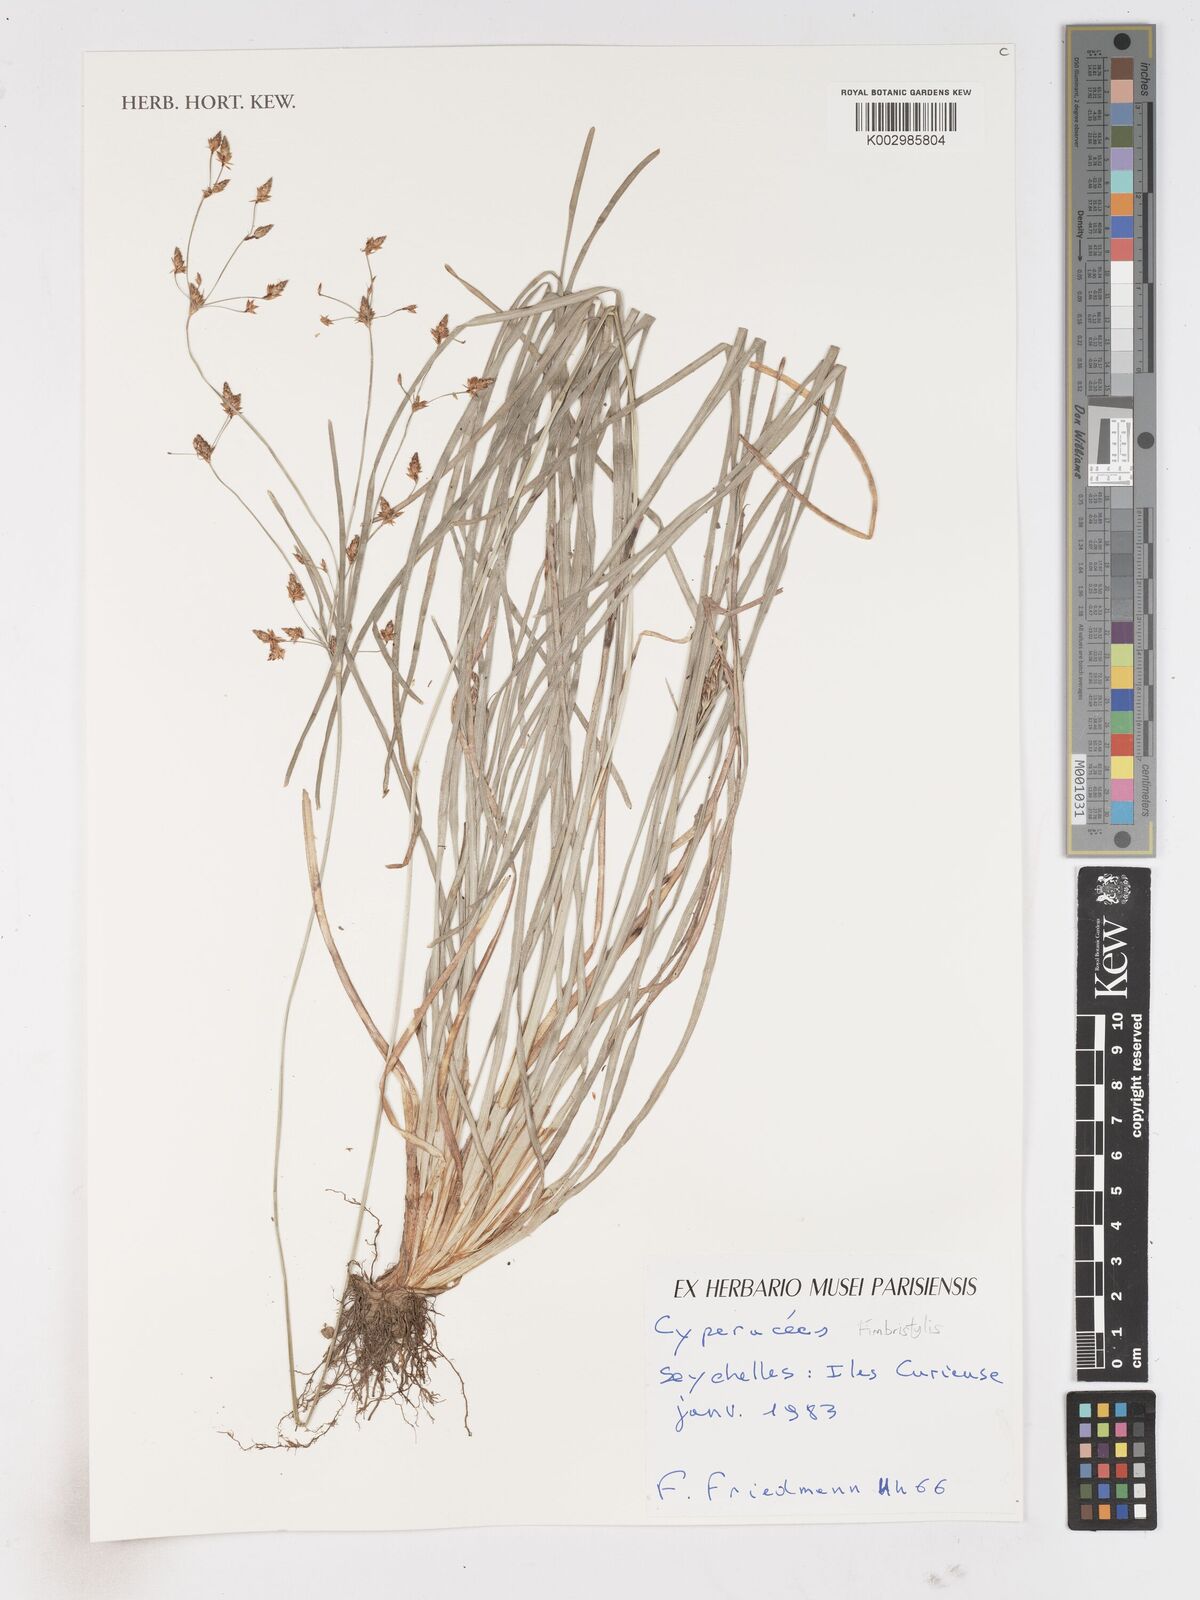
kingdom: Plantae
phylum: Tracheophyta
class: Liliopsida
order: Poales
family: Cyperaceae
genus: Fimbristylis
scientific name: Fimbristylis
